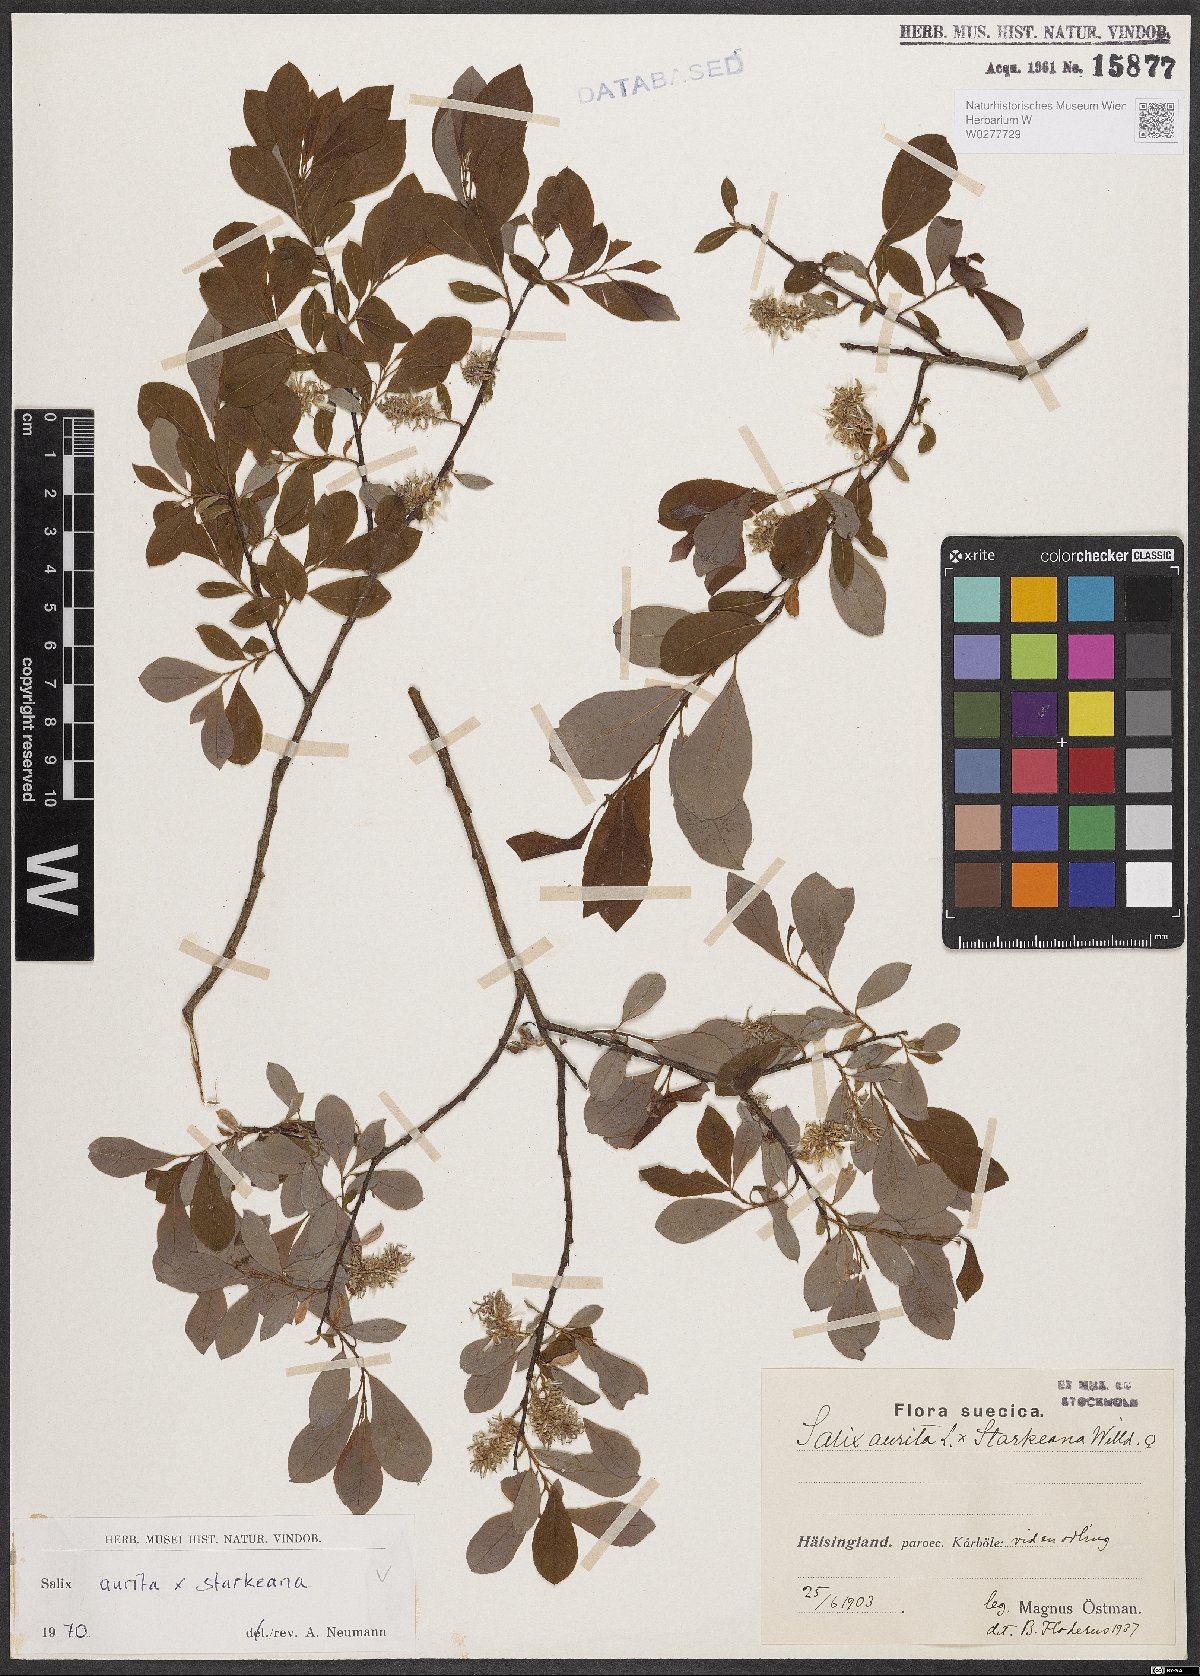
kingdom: Plantae
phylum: Tracheophyta
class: Magnoliopsida
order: Malpighiales
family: Salicaceae
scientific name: Salicaceae
